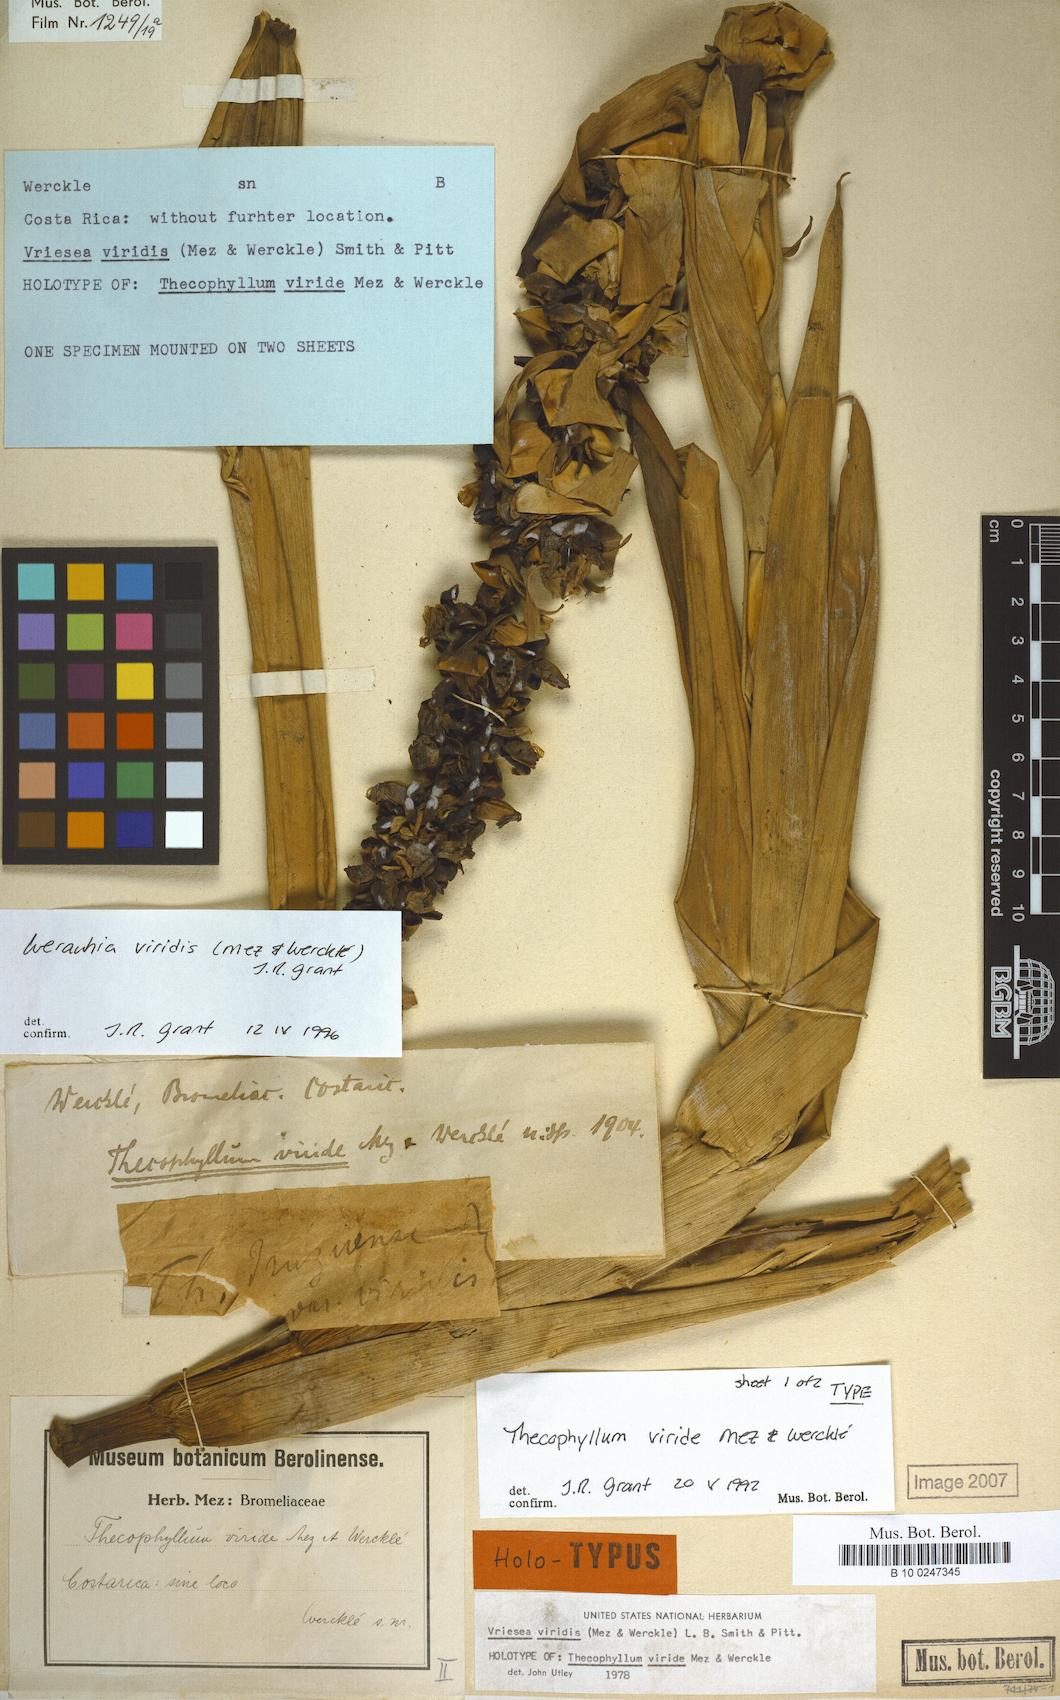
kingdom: Plantae
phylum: Tracheophyta
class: Liliopsida
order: Poales
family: Bromeliaceae
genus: Werauhia
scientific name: Werauhia viridis
